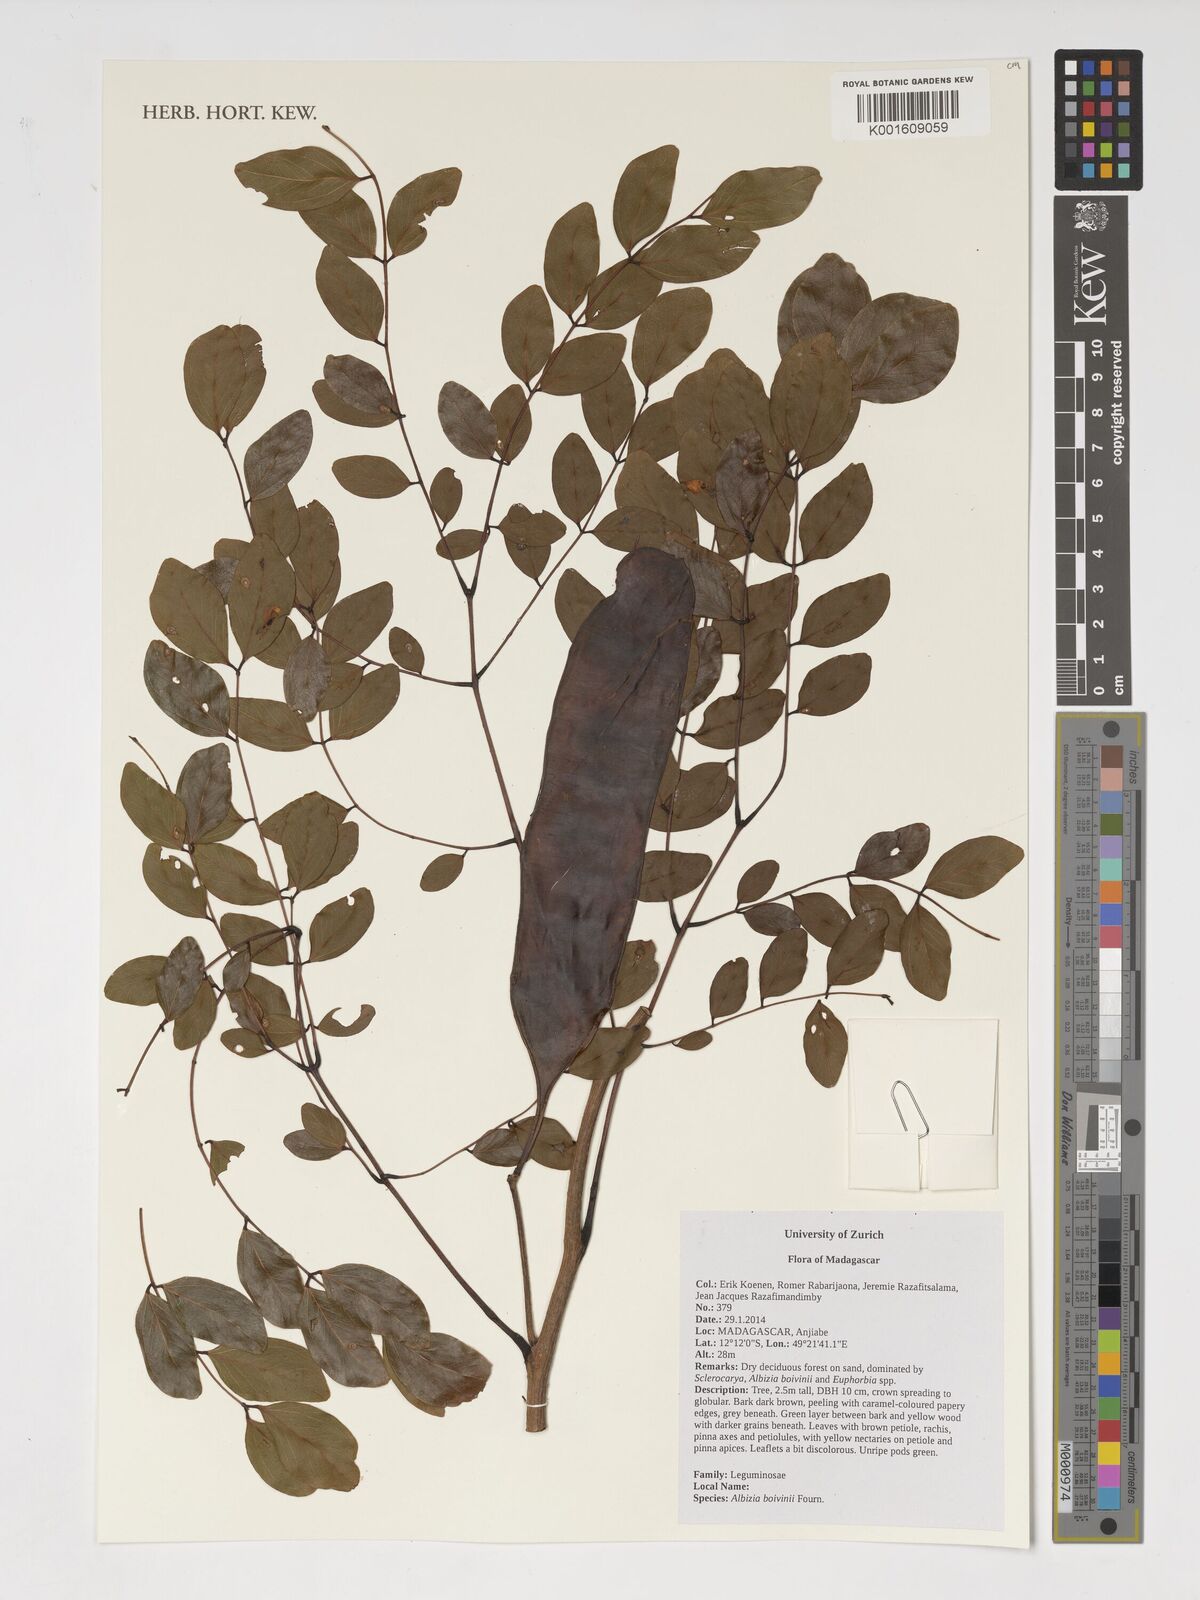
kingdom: Plantae
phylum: Tracheophyta
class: Magnoliopsida
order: Fabales
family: Fabaceae
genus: Albizia
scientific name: Albizia boivinii
